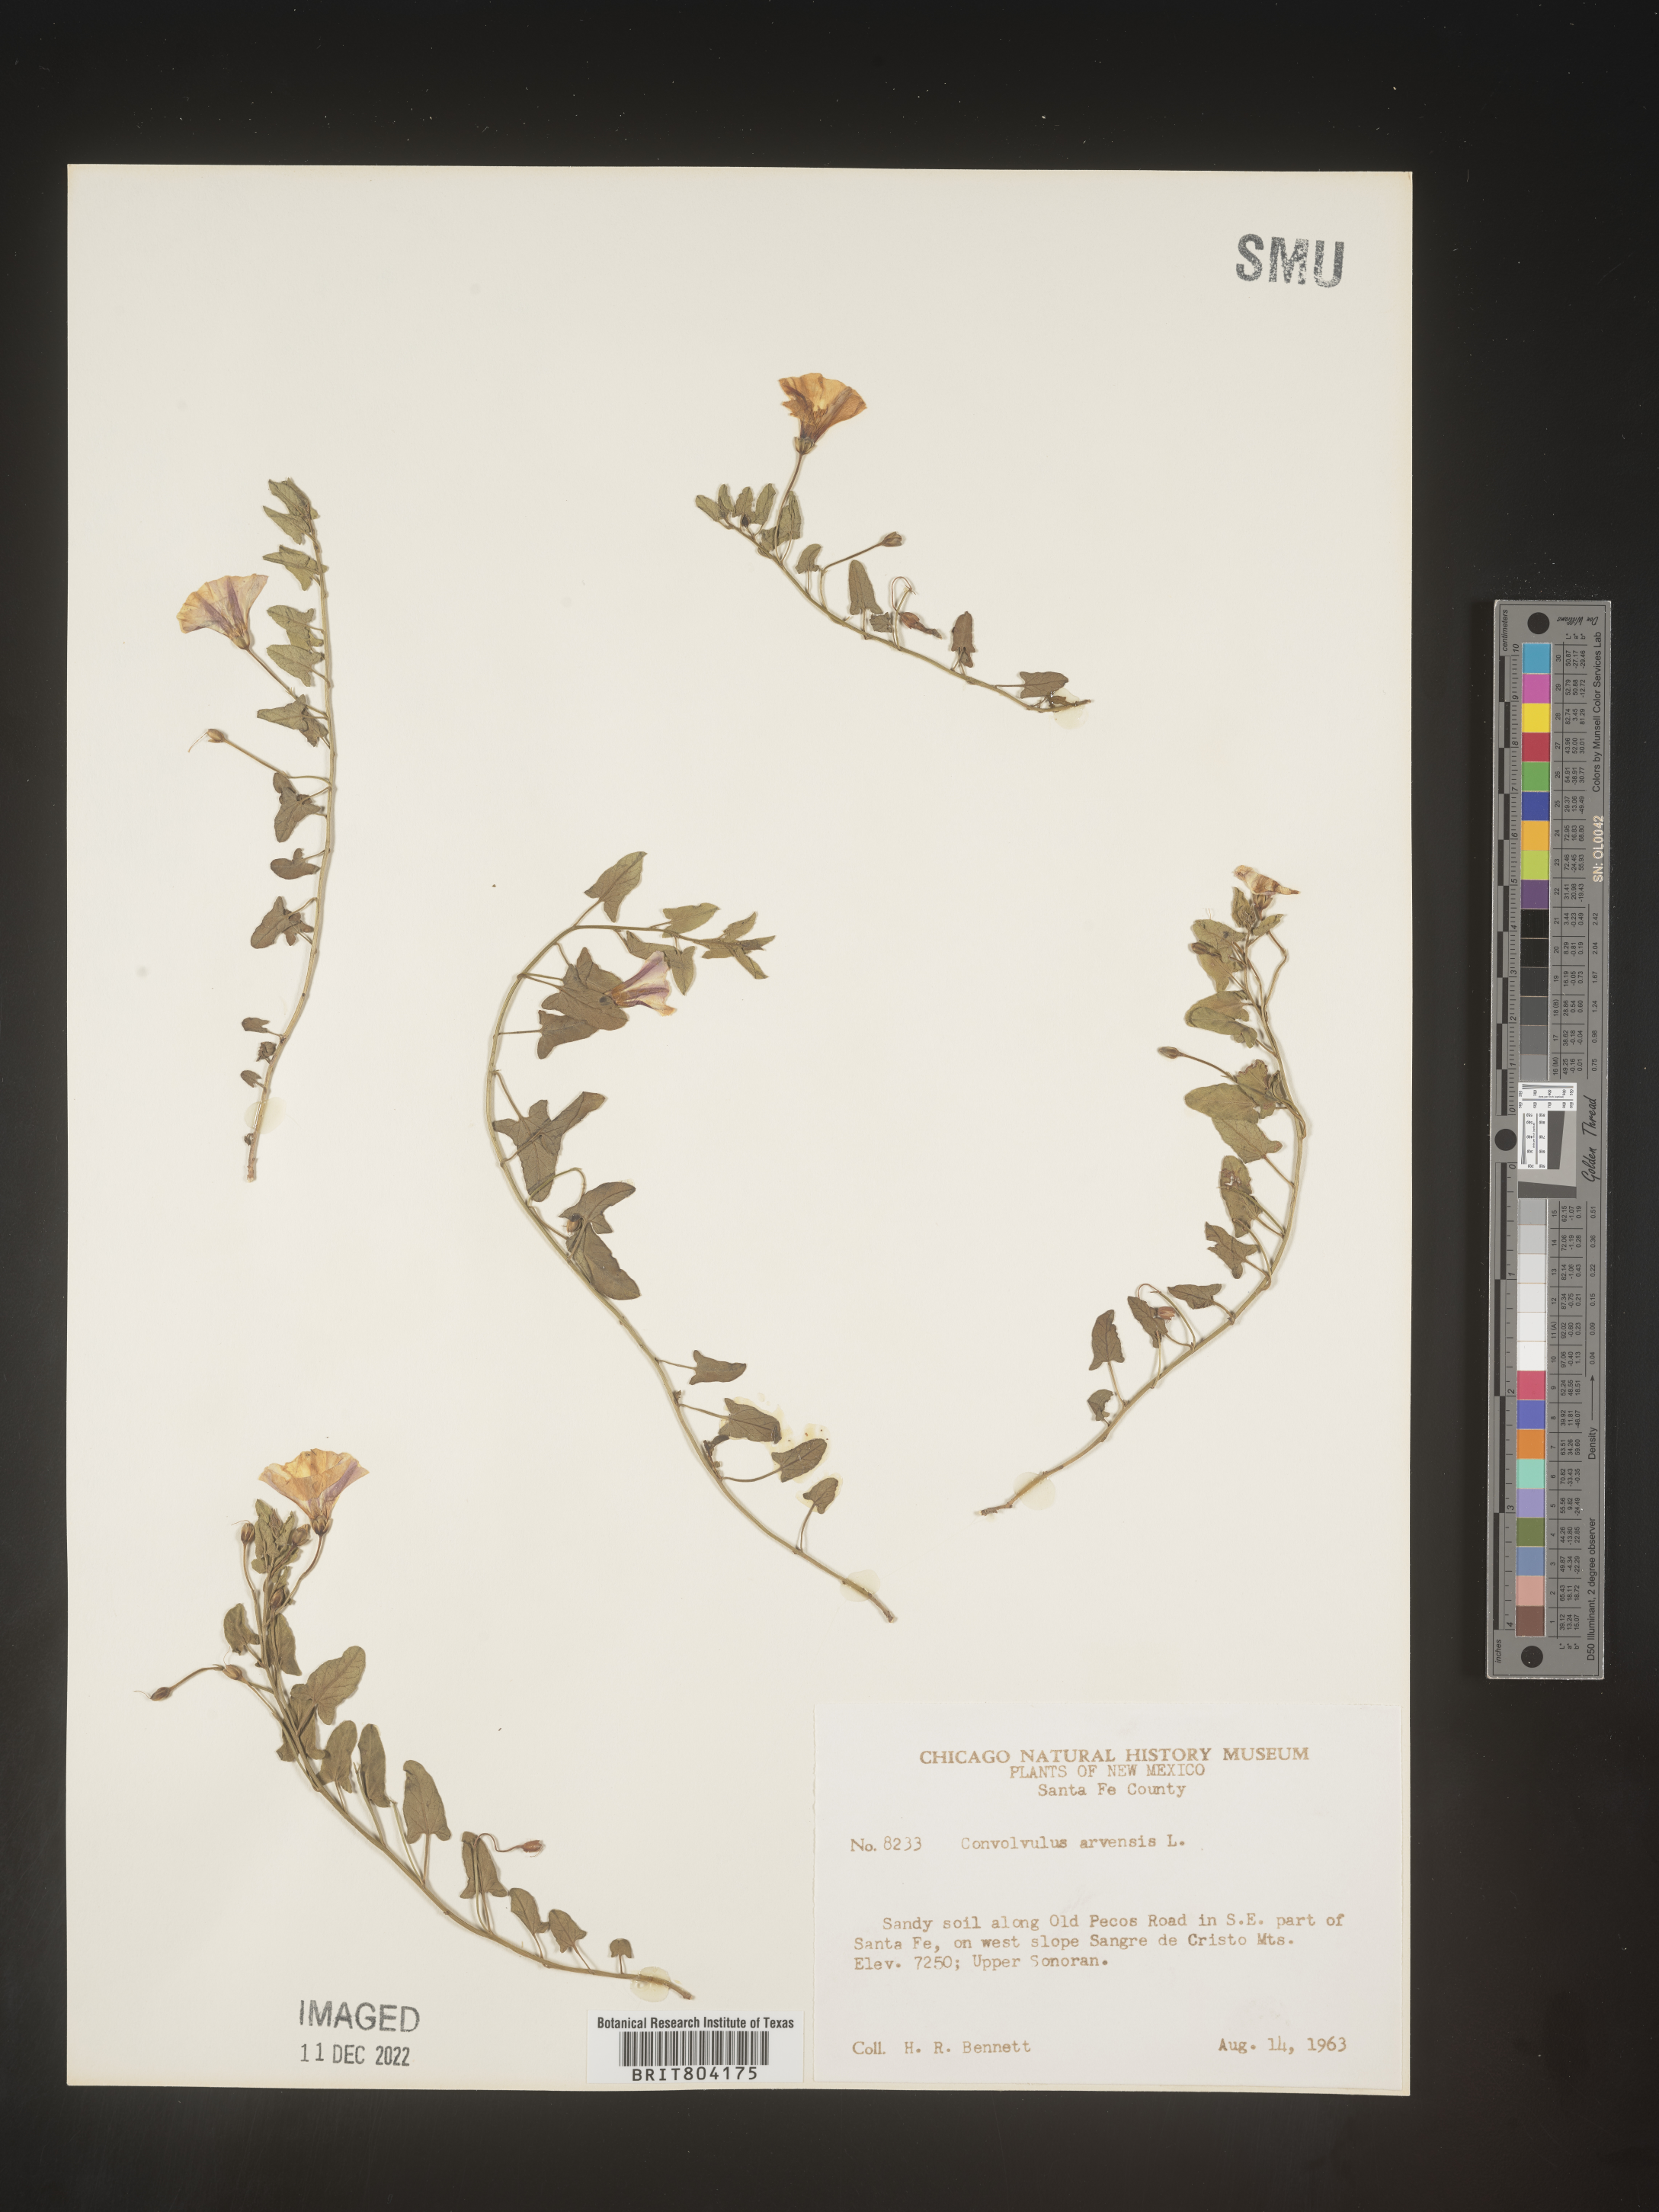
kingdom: Plantae
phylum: Tracheophyta
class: Magnoliopsida
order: Solanales
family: Convolvulaceae
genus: Convolvulus
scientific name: Convolvulus arvensis
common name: Field bindweed
